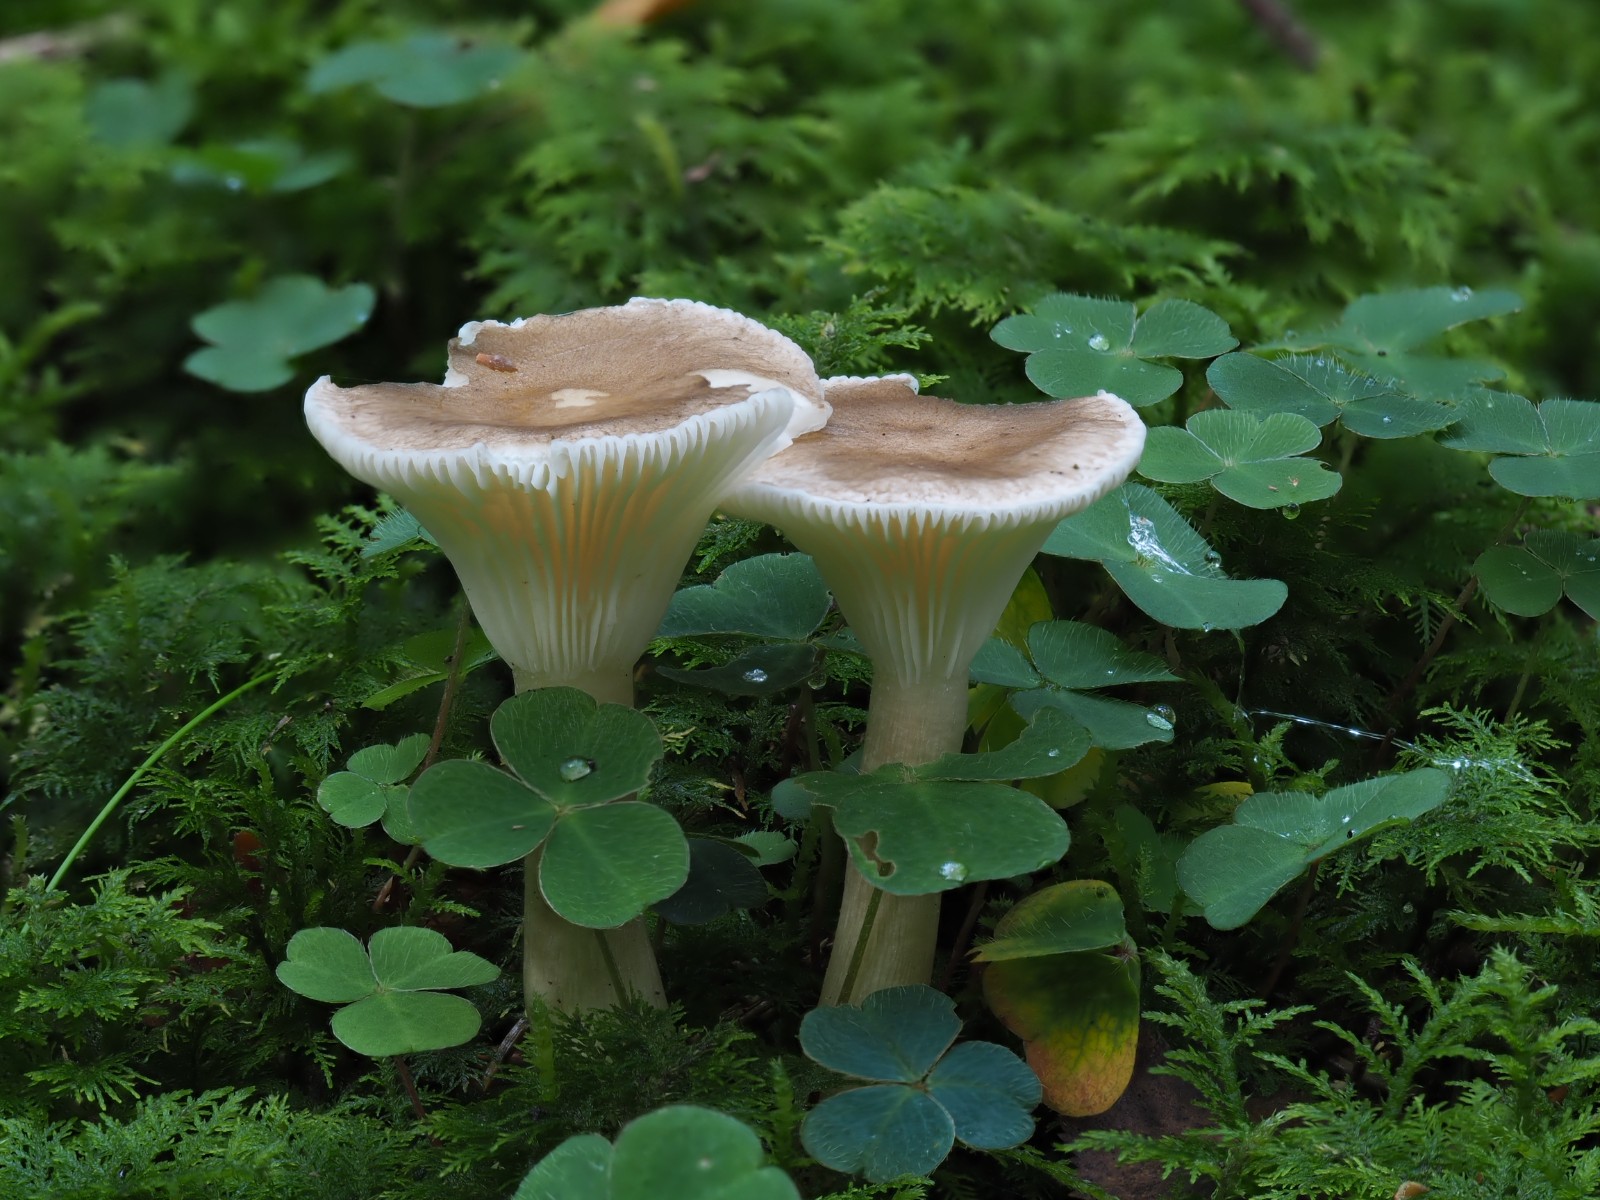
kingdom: Fungi
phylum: Basidiomycota
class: Agaricomycetes
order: Agaricales
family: Hygrophoraceae
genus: Ampulloclitocybe
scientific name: Ampulloclitocybe clavipes
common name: køllefod
